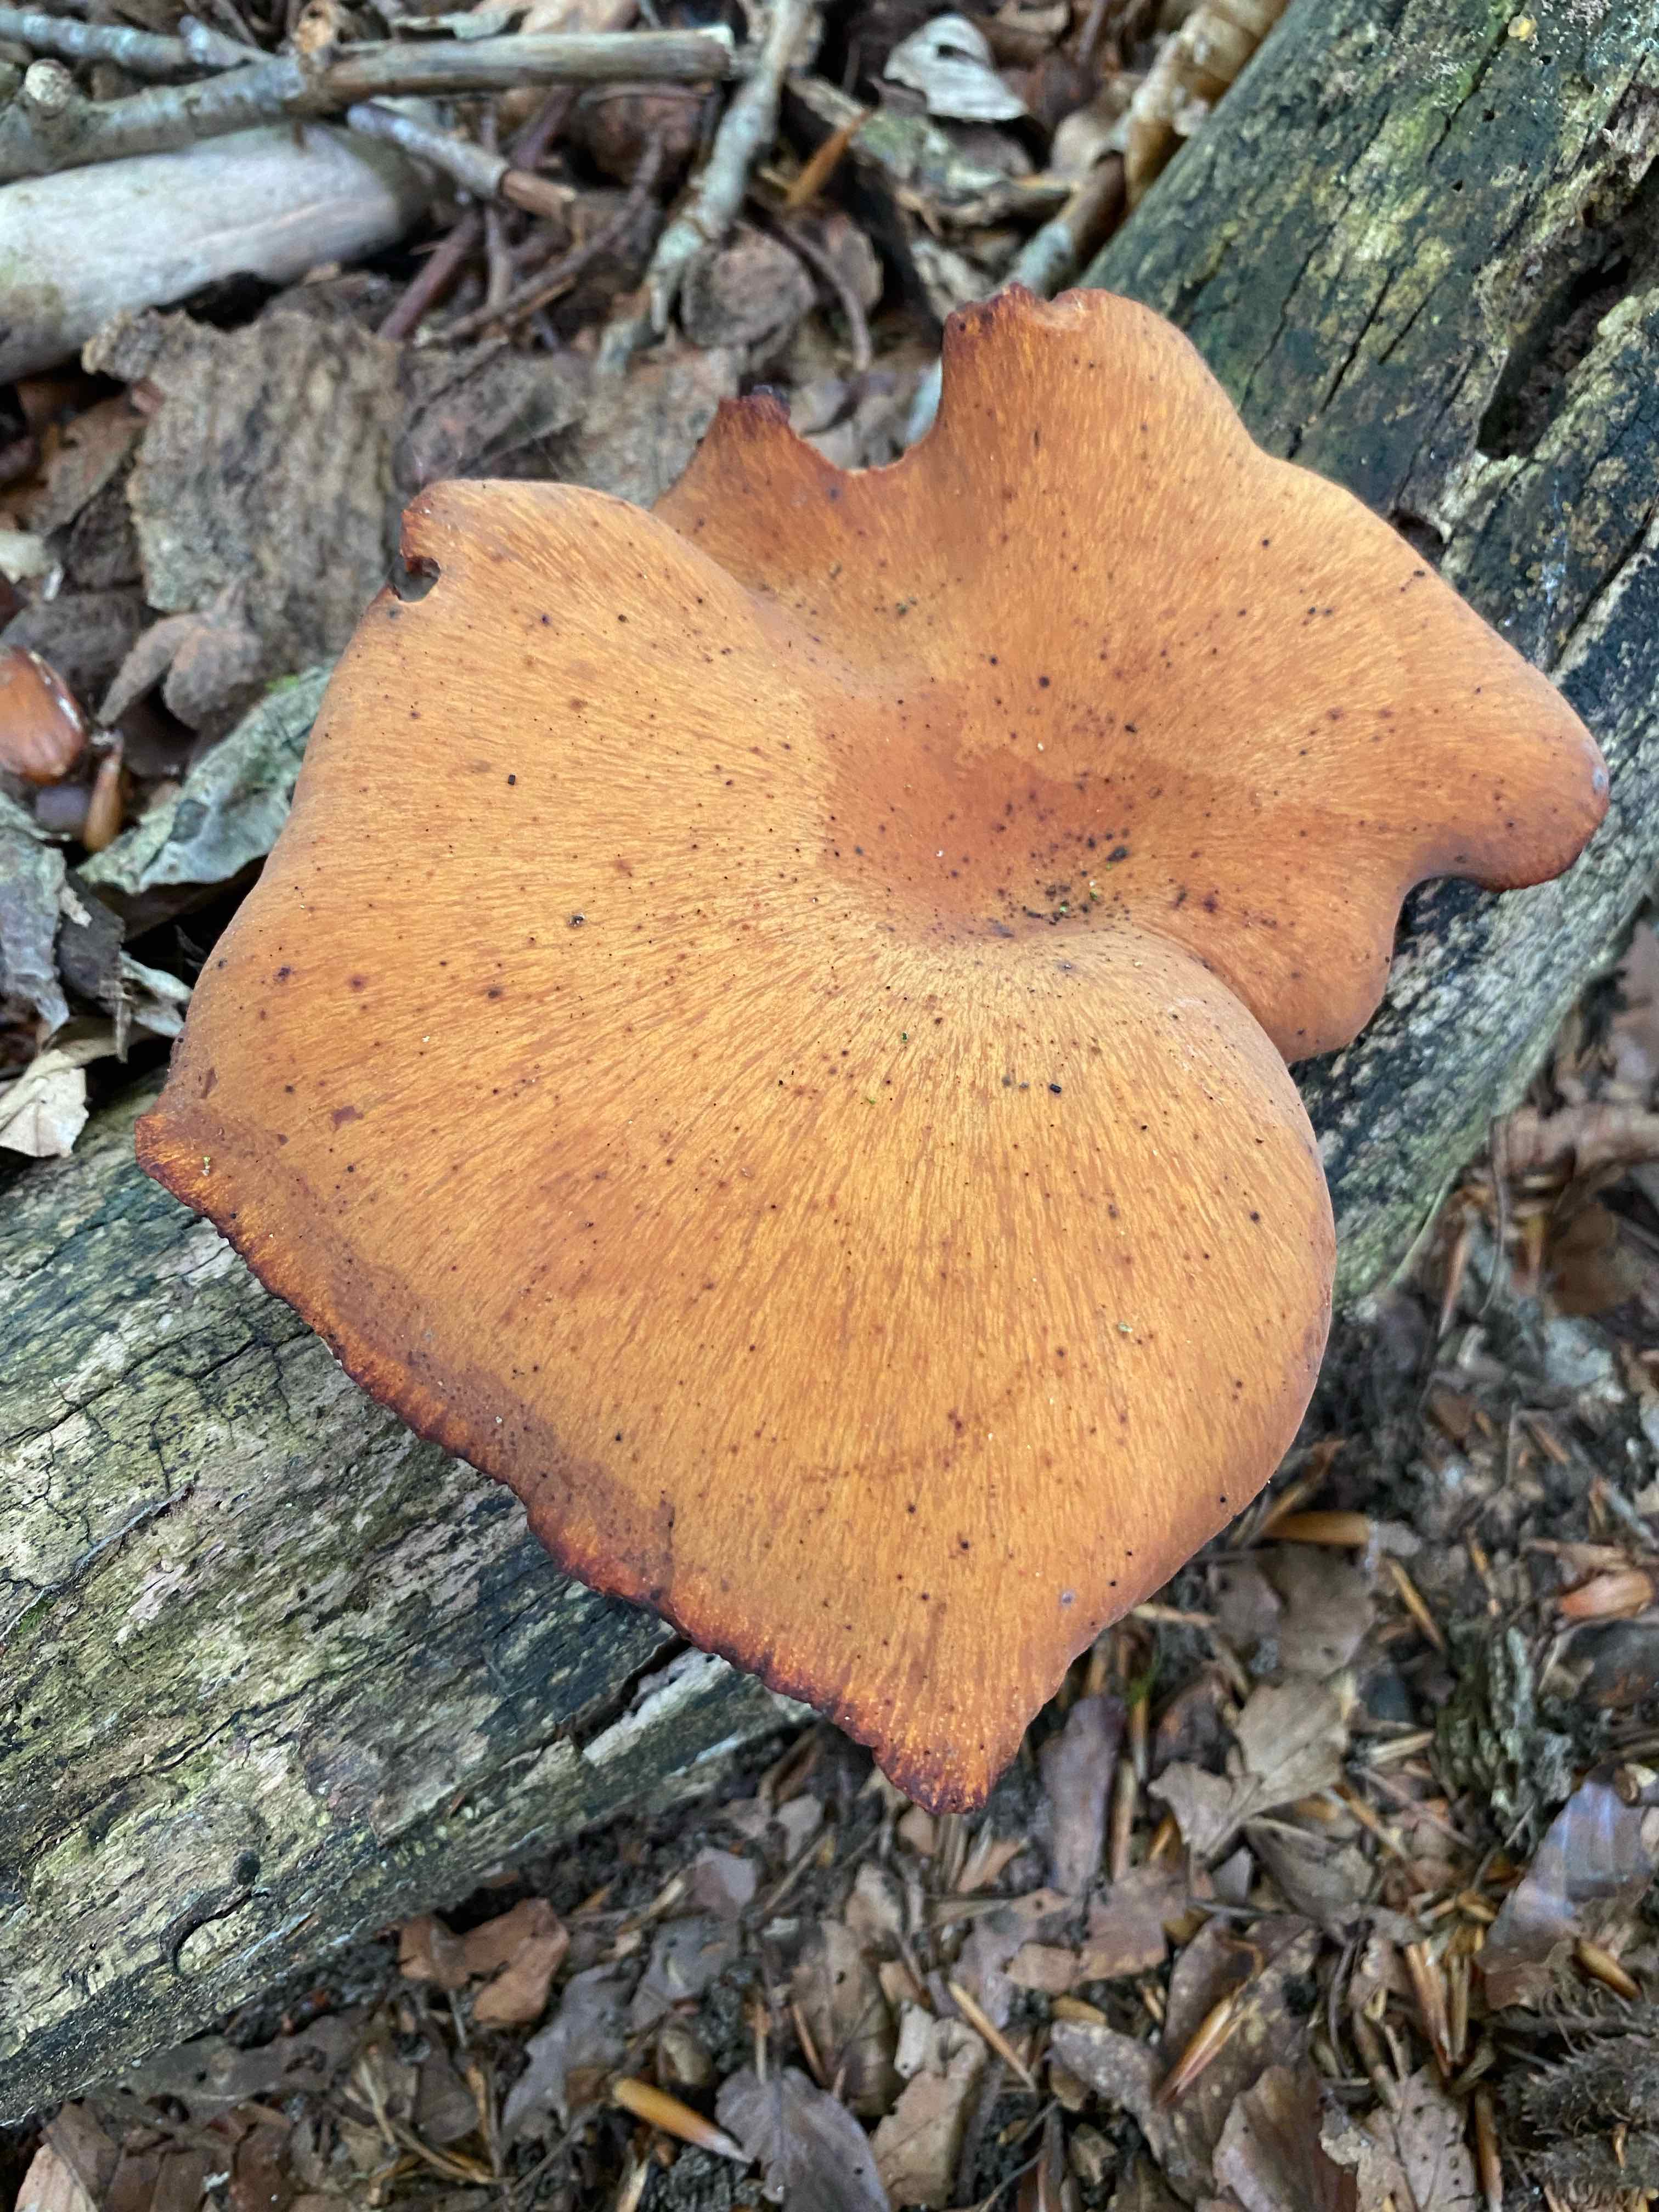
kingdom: Fungi
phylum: Basidiomycota
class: Agaricomycetes
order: Polyporales
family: Polyporaceae
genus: Cerioporus
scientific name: Cerioporus varius
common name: foranderlig stilkporesvamp
